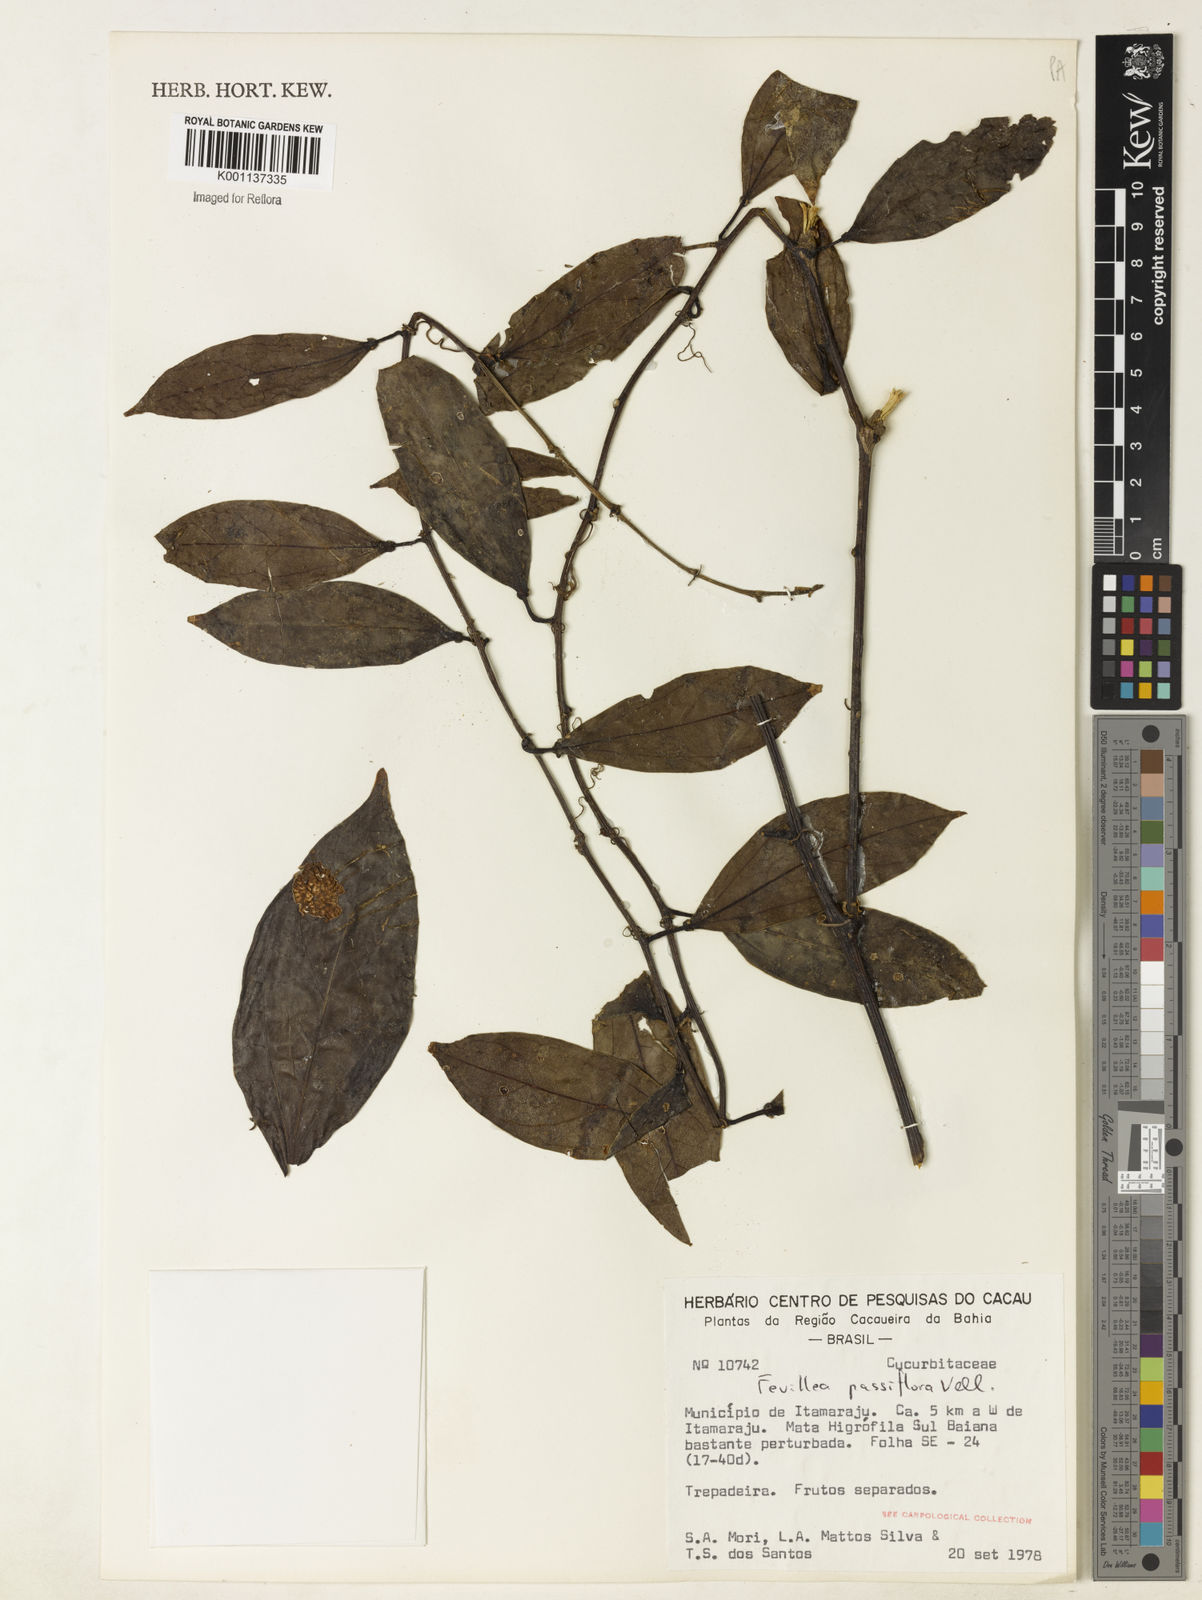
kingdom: Plantae
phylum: Tracheophyta
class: Magnoliopsida
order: Cucurbitales
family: Cucurbitaceae
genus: Anisosperma
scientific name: Anisosperma passiflora
